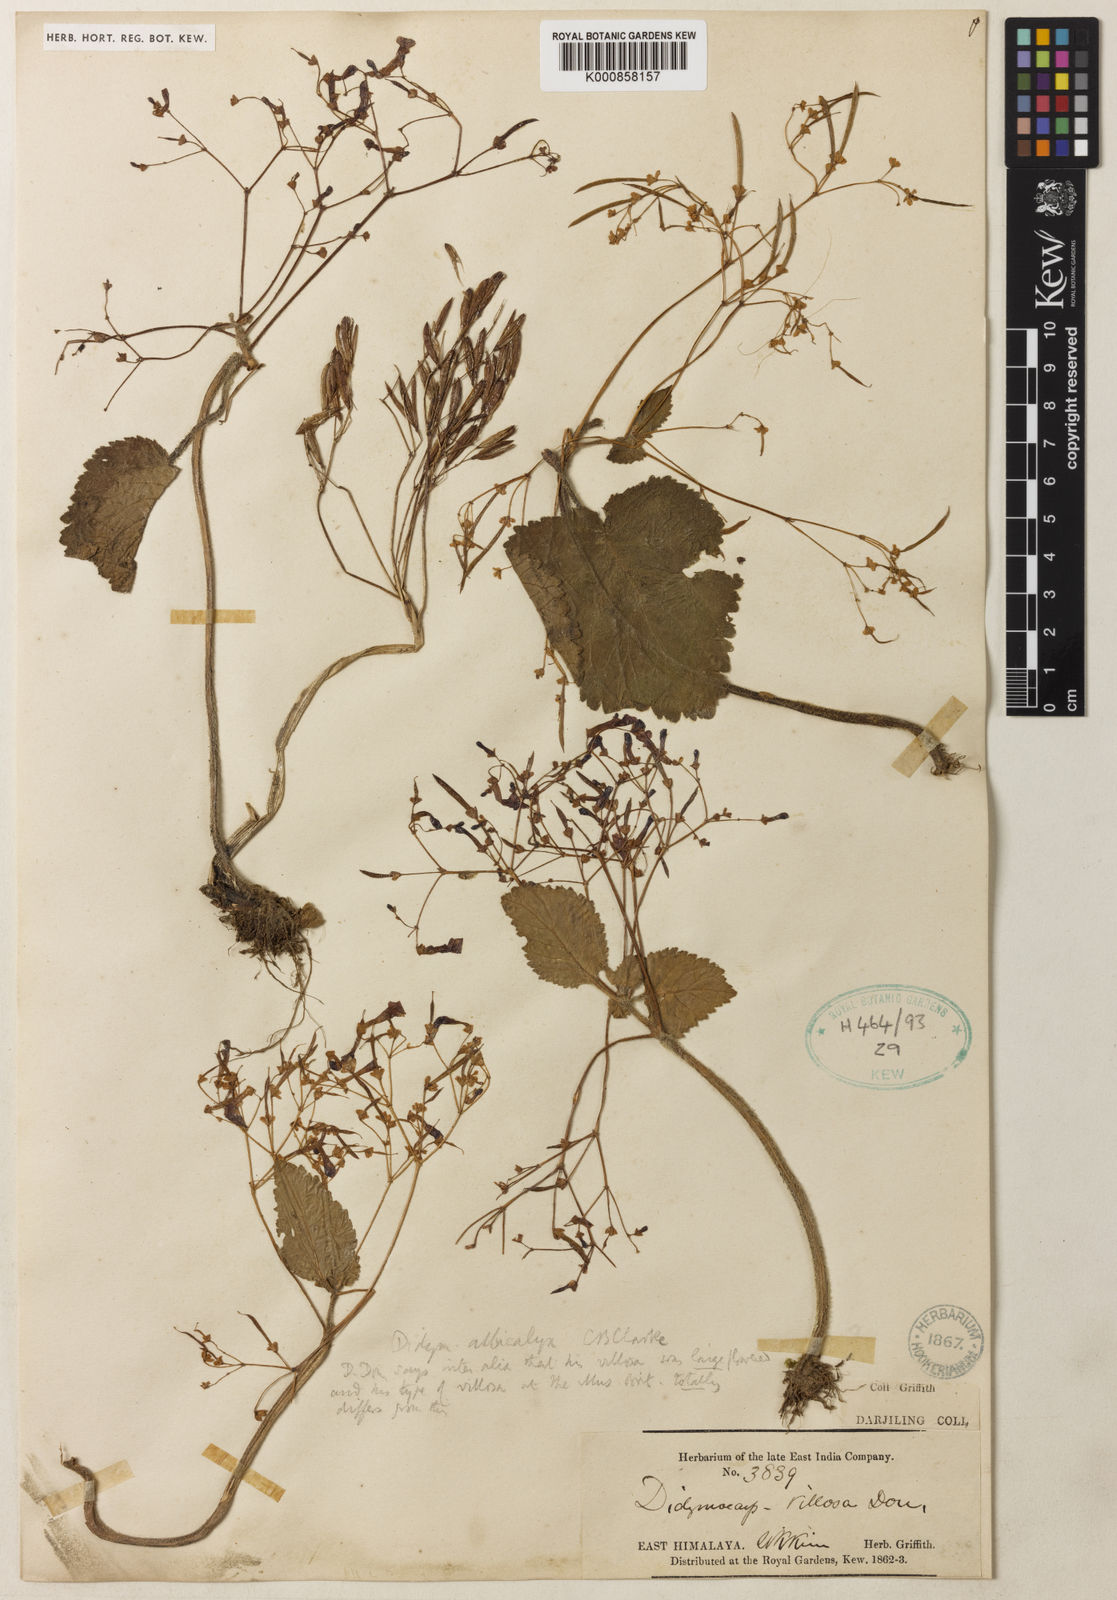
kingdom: Plantae
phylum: Tracheophyta
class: Magnoliopsida
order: Lamiales
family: Gesneriaceae
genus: Henckelia
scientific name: Henckelia
